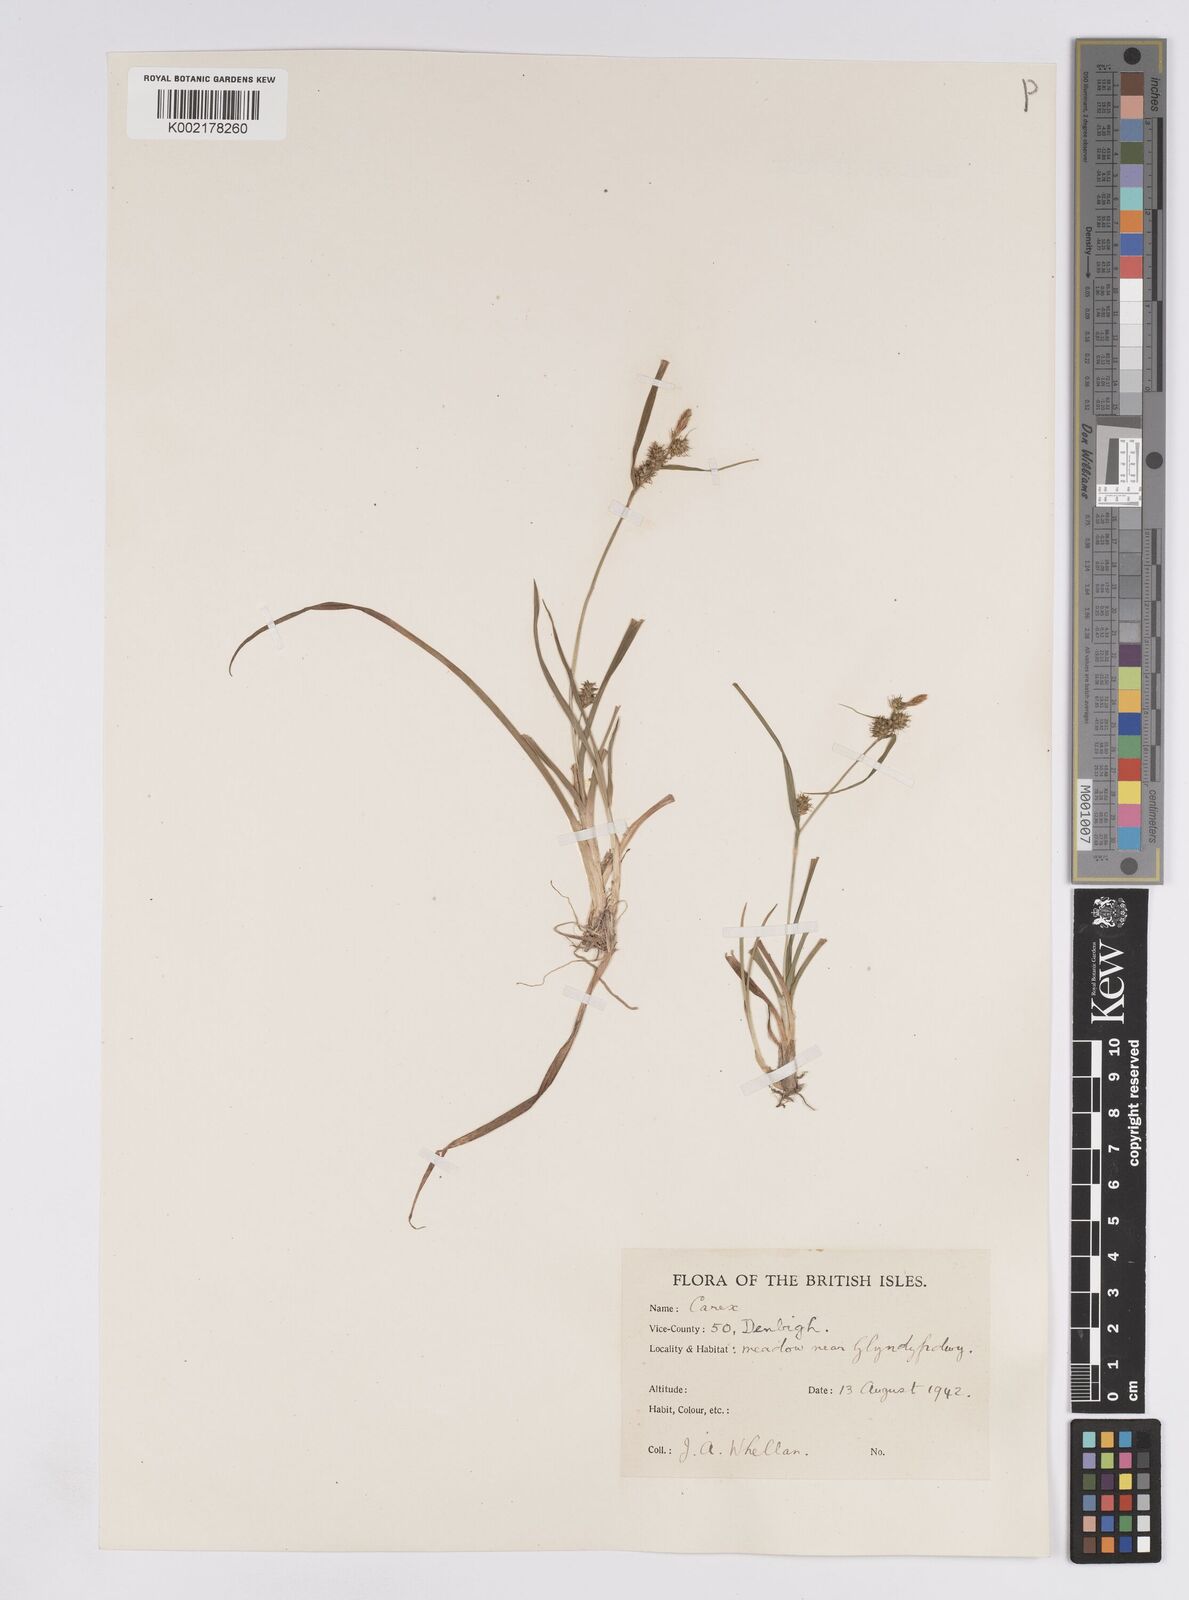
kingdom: Plantae
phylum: Tracheophyta
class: Liliopsida
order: Poales
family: Cyperaceae
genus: Carex
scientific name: Carex demissa
